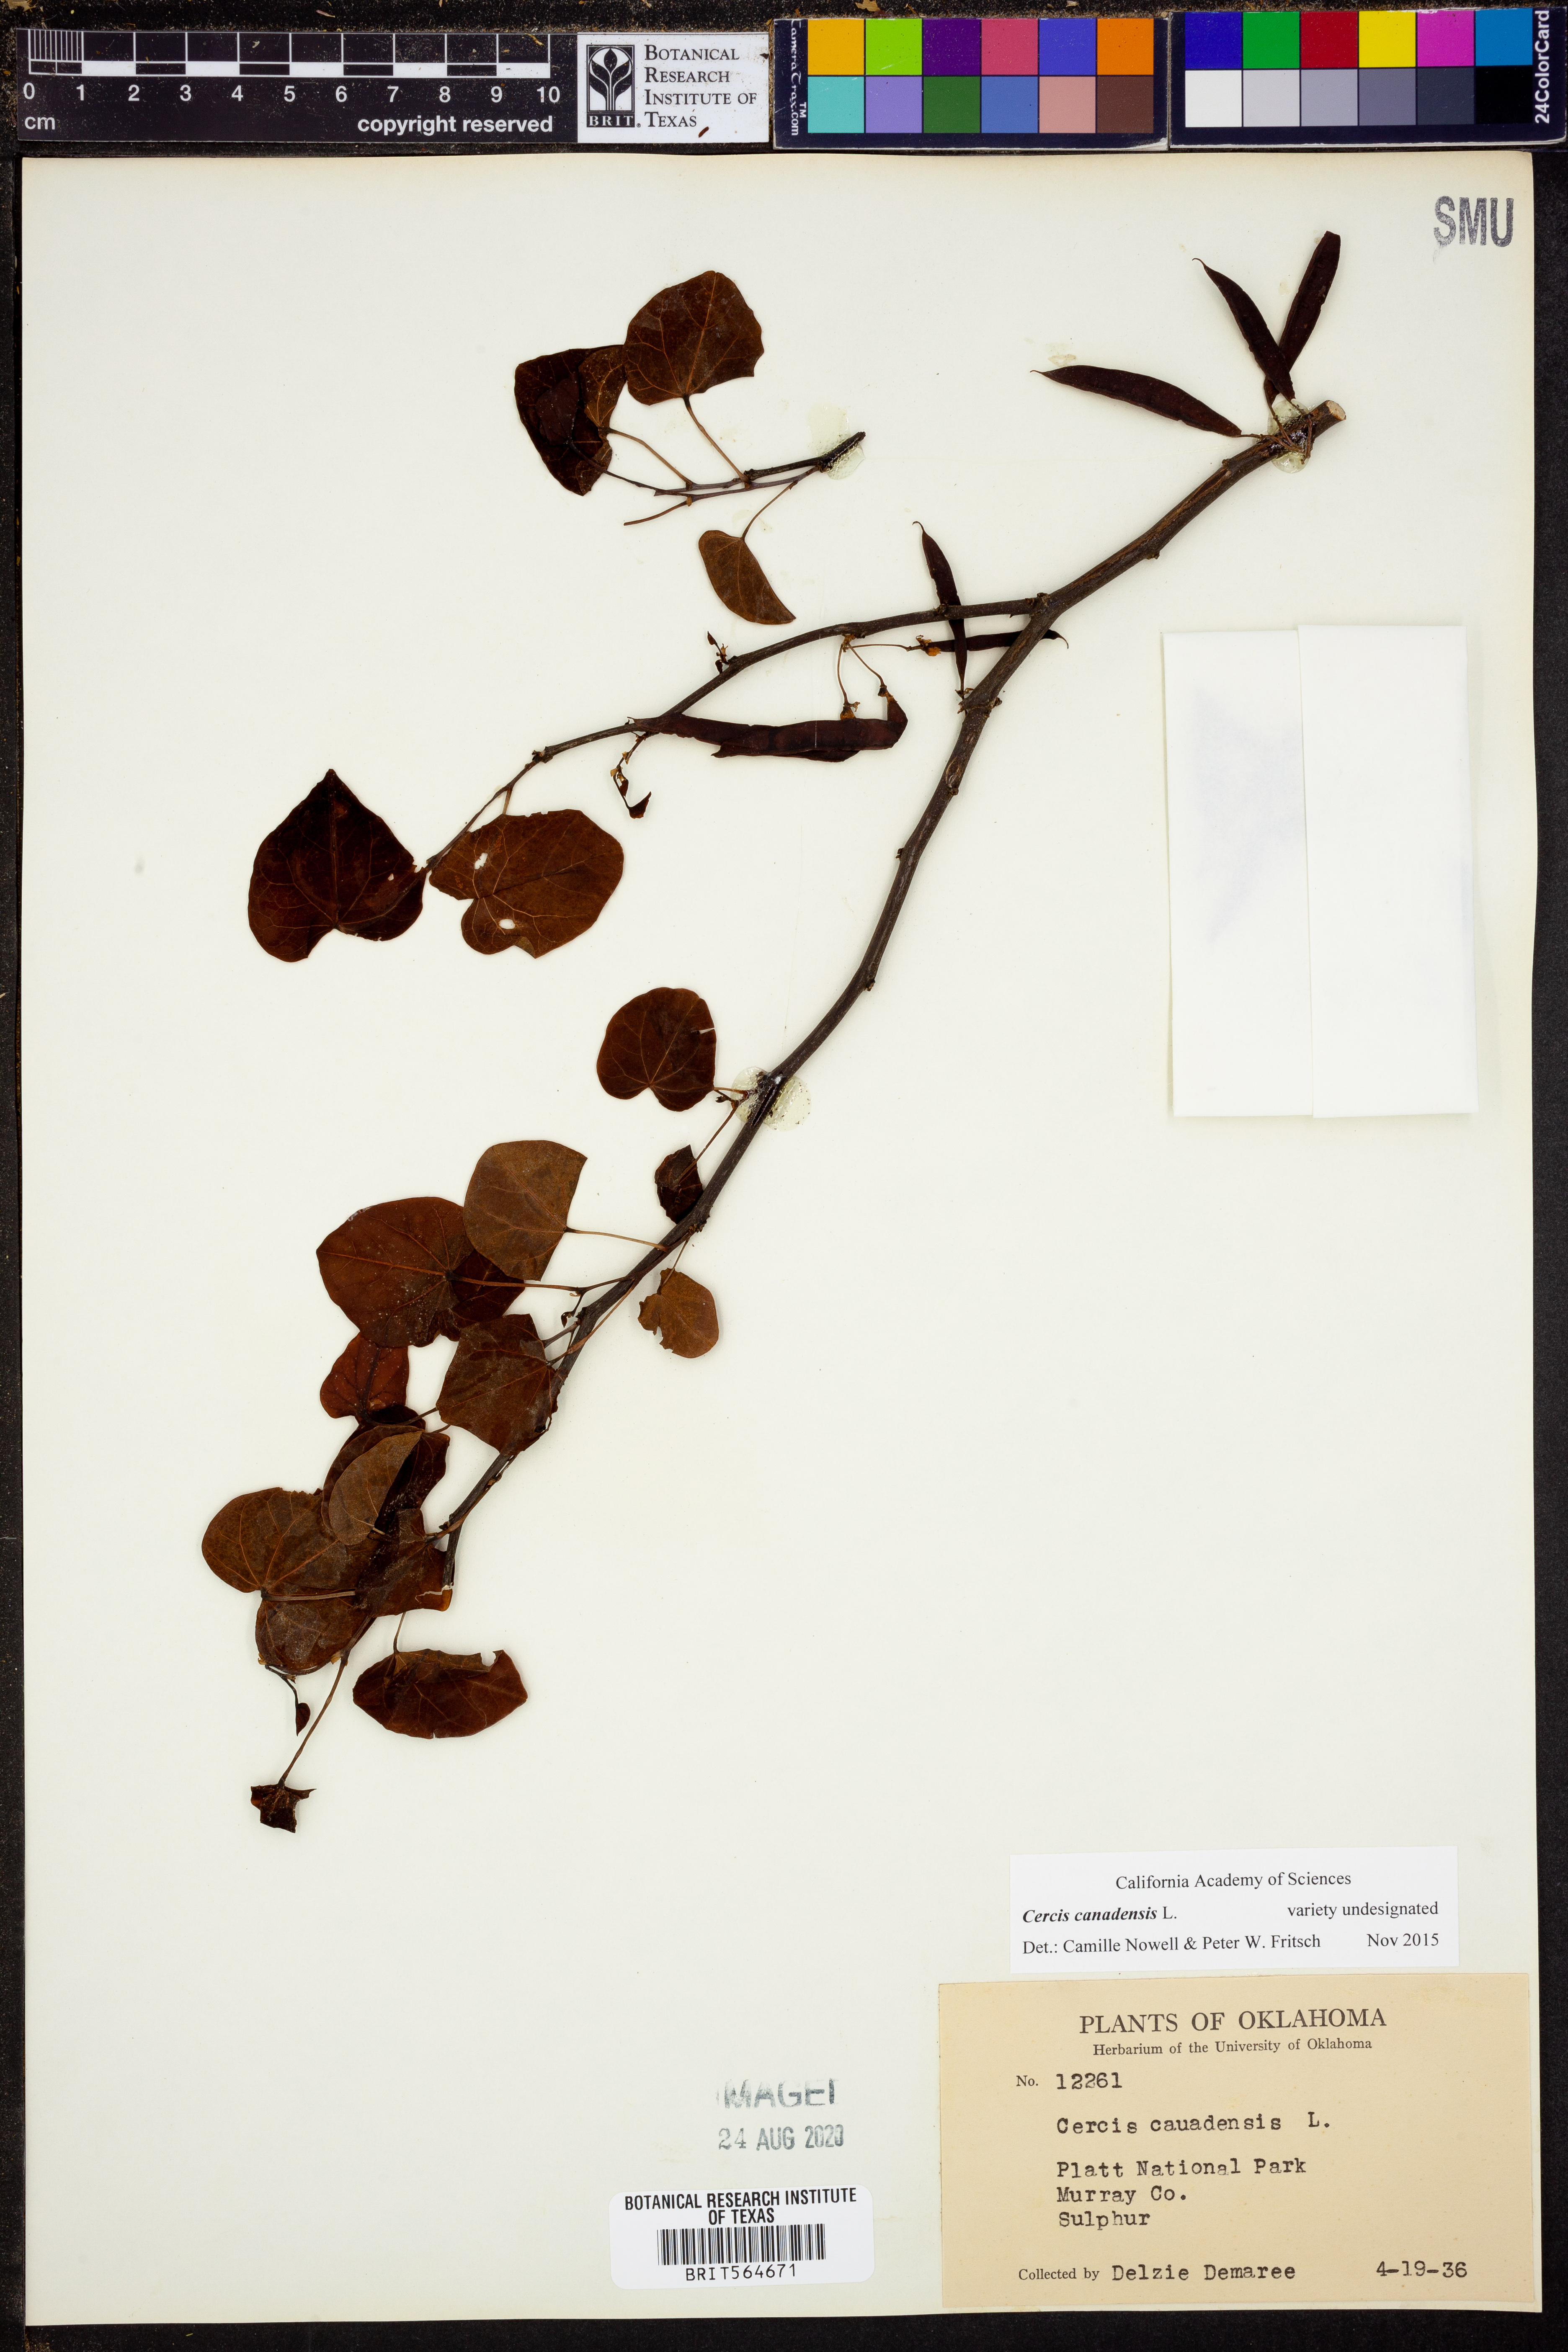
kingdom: Plantae
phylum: Tracheophyta
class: Magnoliopsida
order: Fabales
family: Fabaceae
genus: Cercis
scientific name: Cercis canadensis
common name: Eastern redbud
